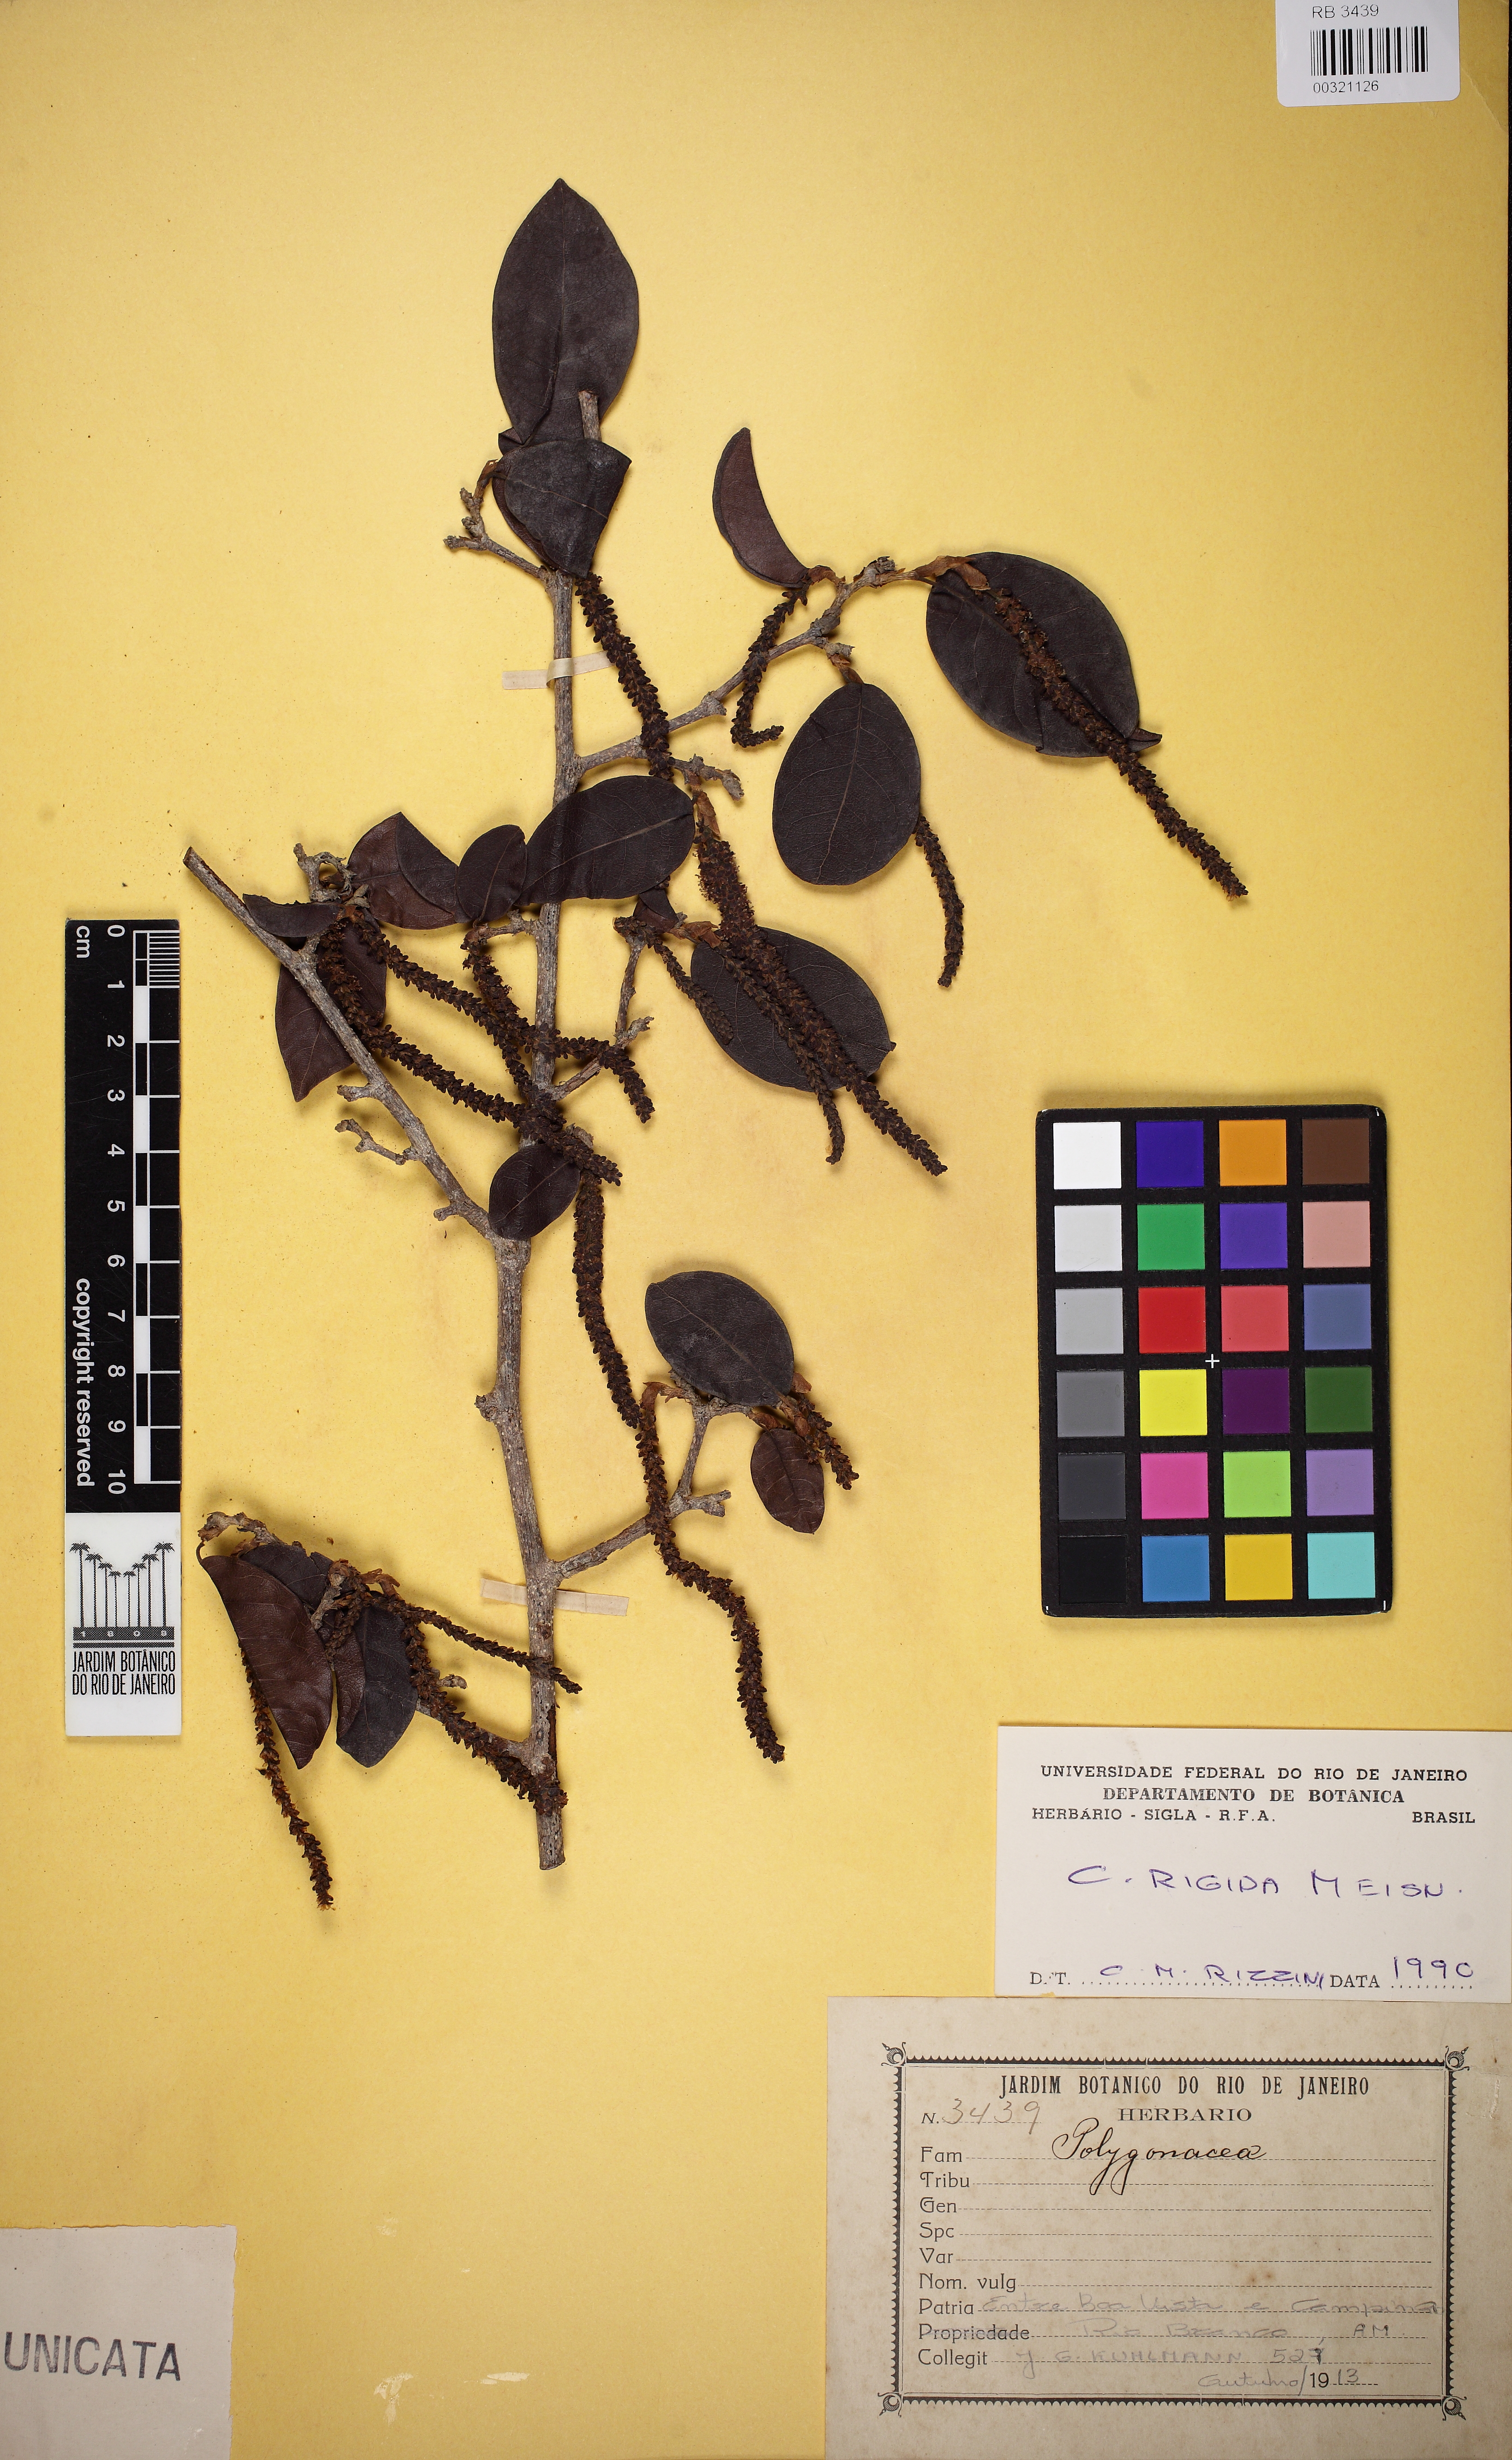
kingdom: Plantae
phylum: Tracheophyta
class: Magnoliopsida
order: Caryophyllales
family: Polygonaceae
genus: Coccoloba
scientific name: Coccoloba rigida
